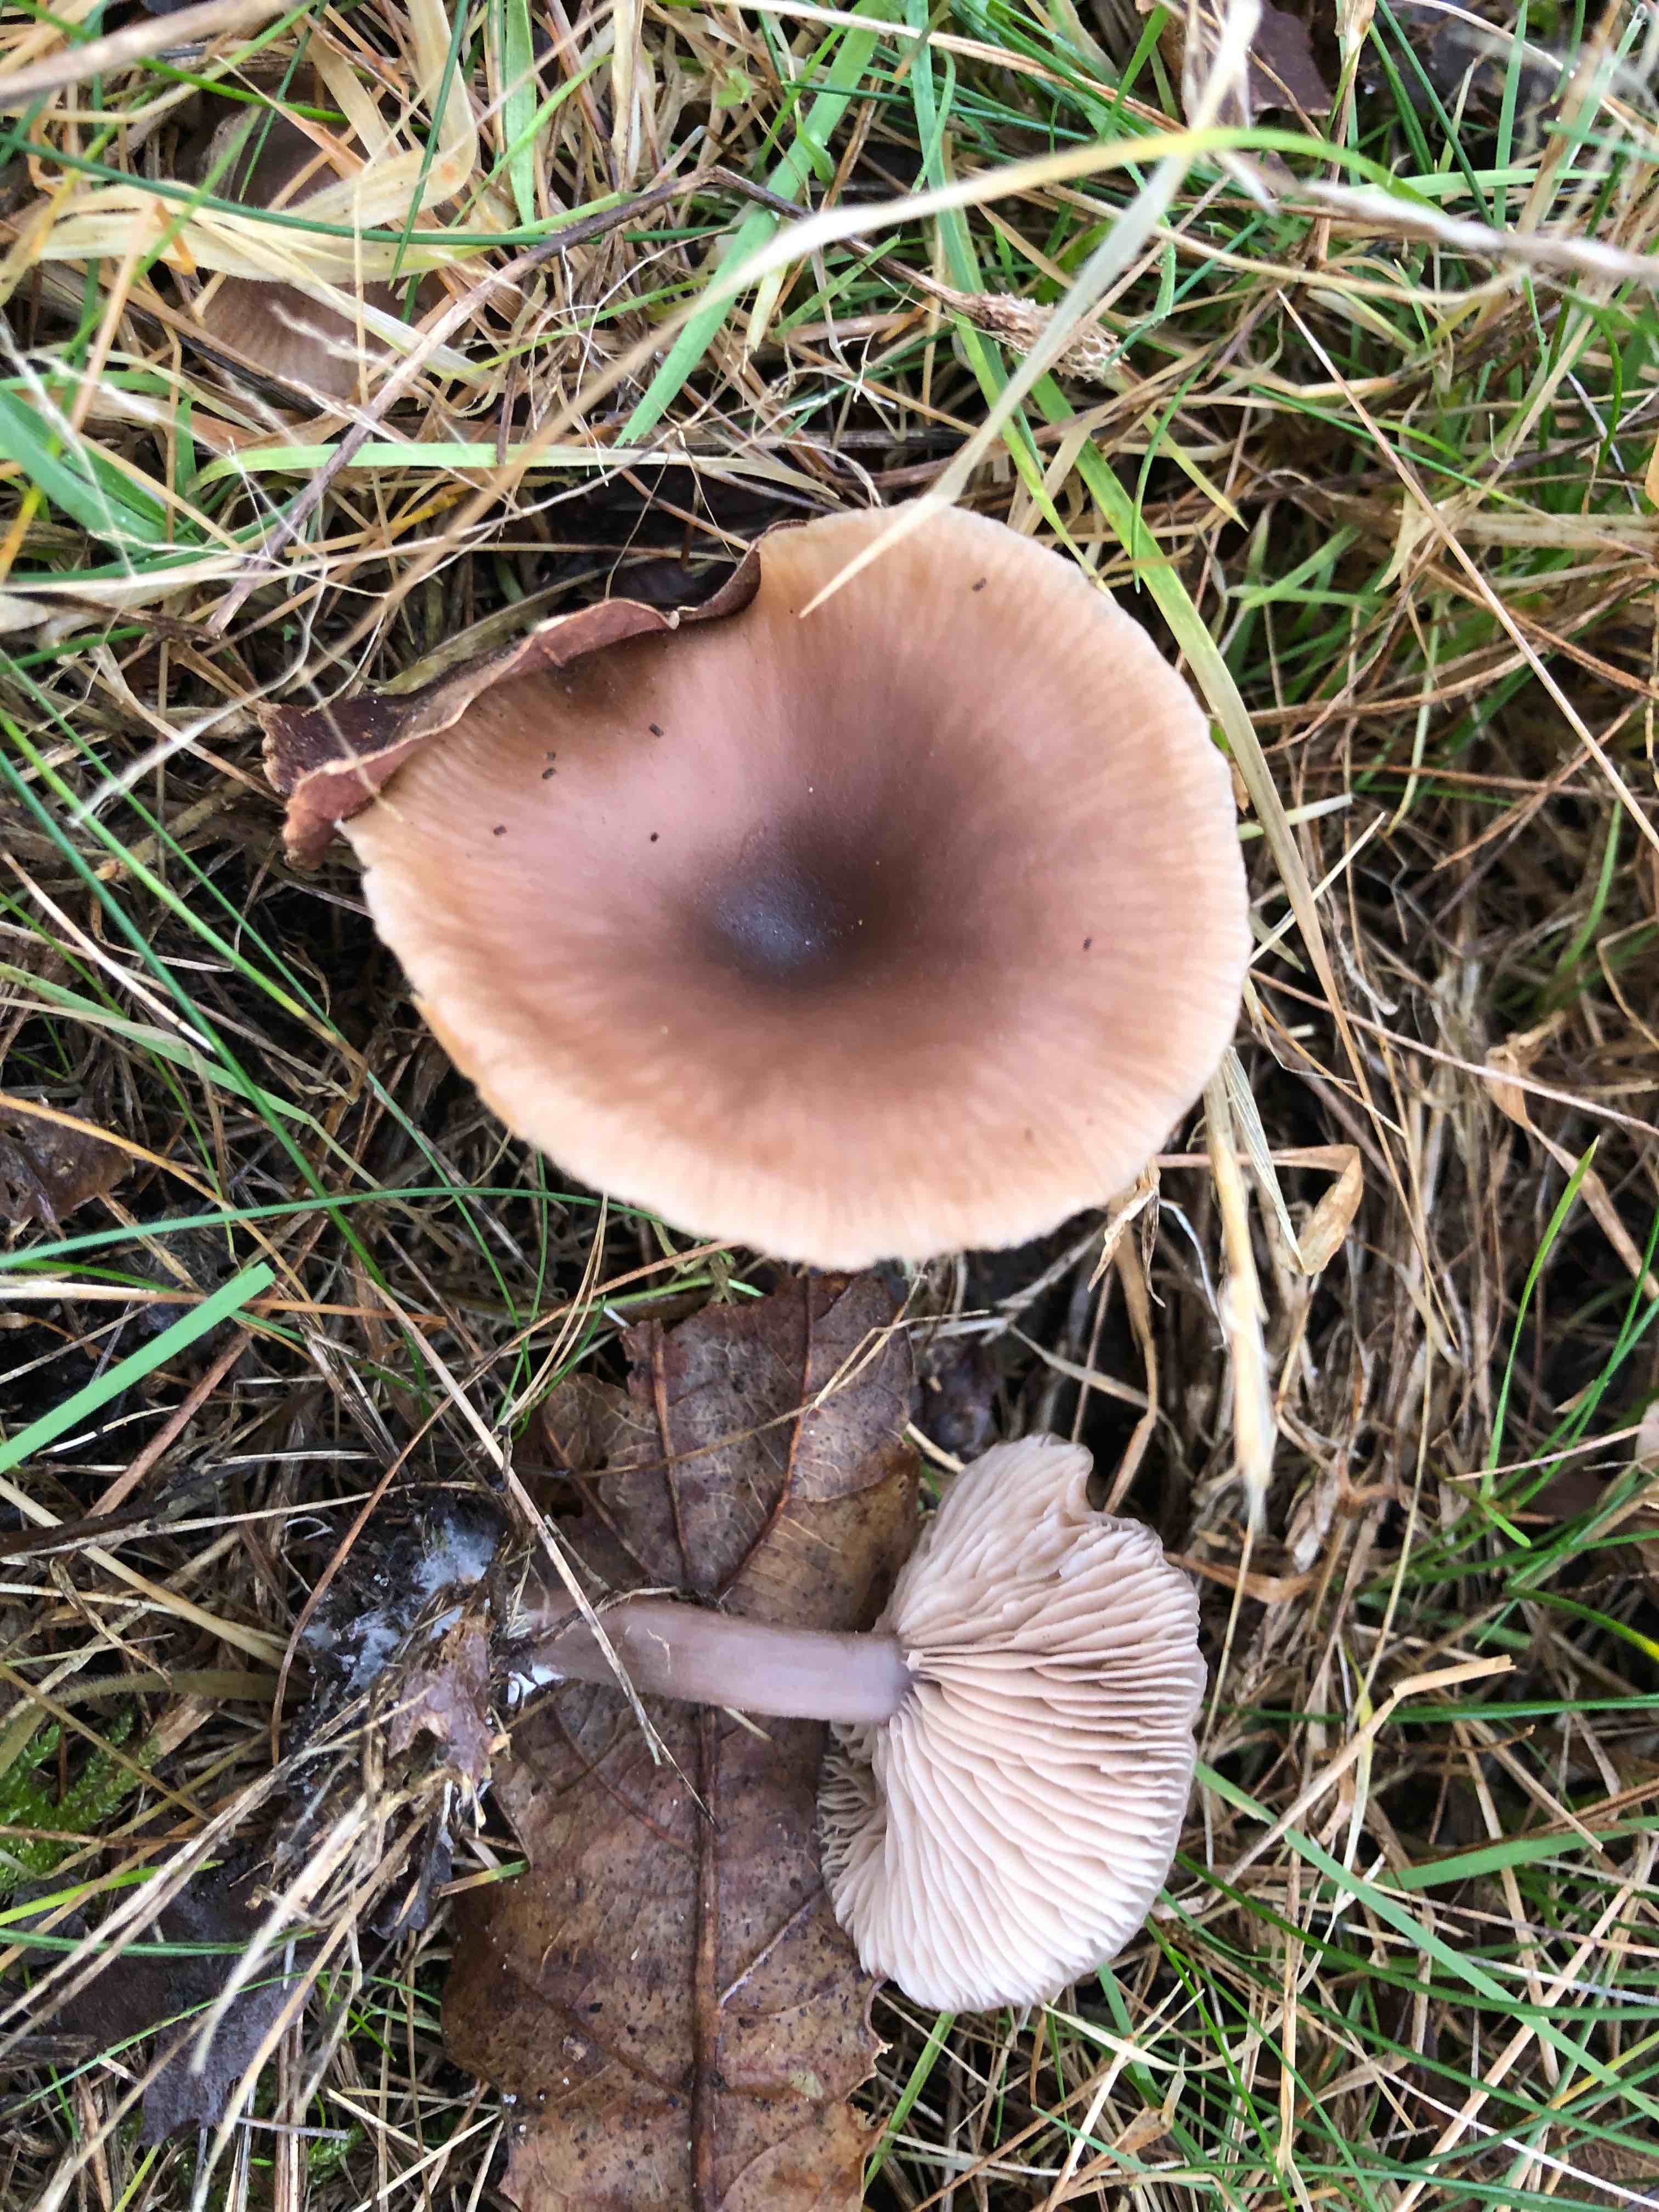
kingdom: Fungi
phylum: Basidiomycota
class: Agaricomycetes
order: Agaricales
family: Pseudoclitocybaceae
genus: Pseudoclitocybe
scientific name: Pseudoclitocybe cyathiformis
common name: almindelig bægertragthat
